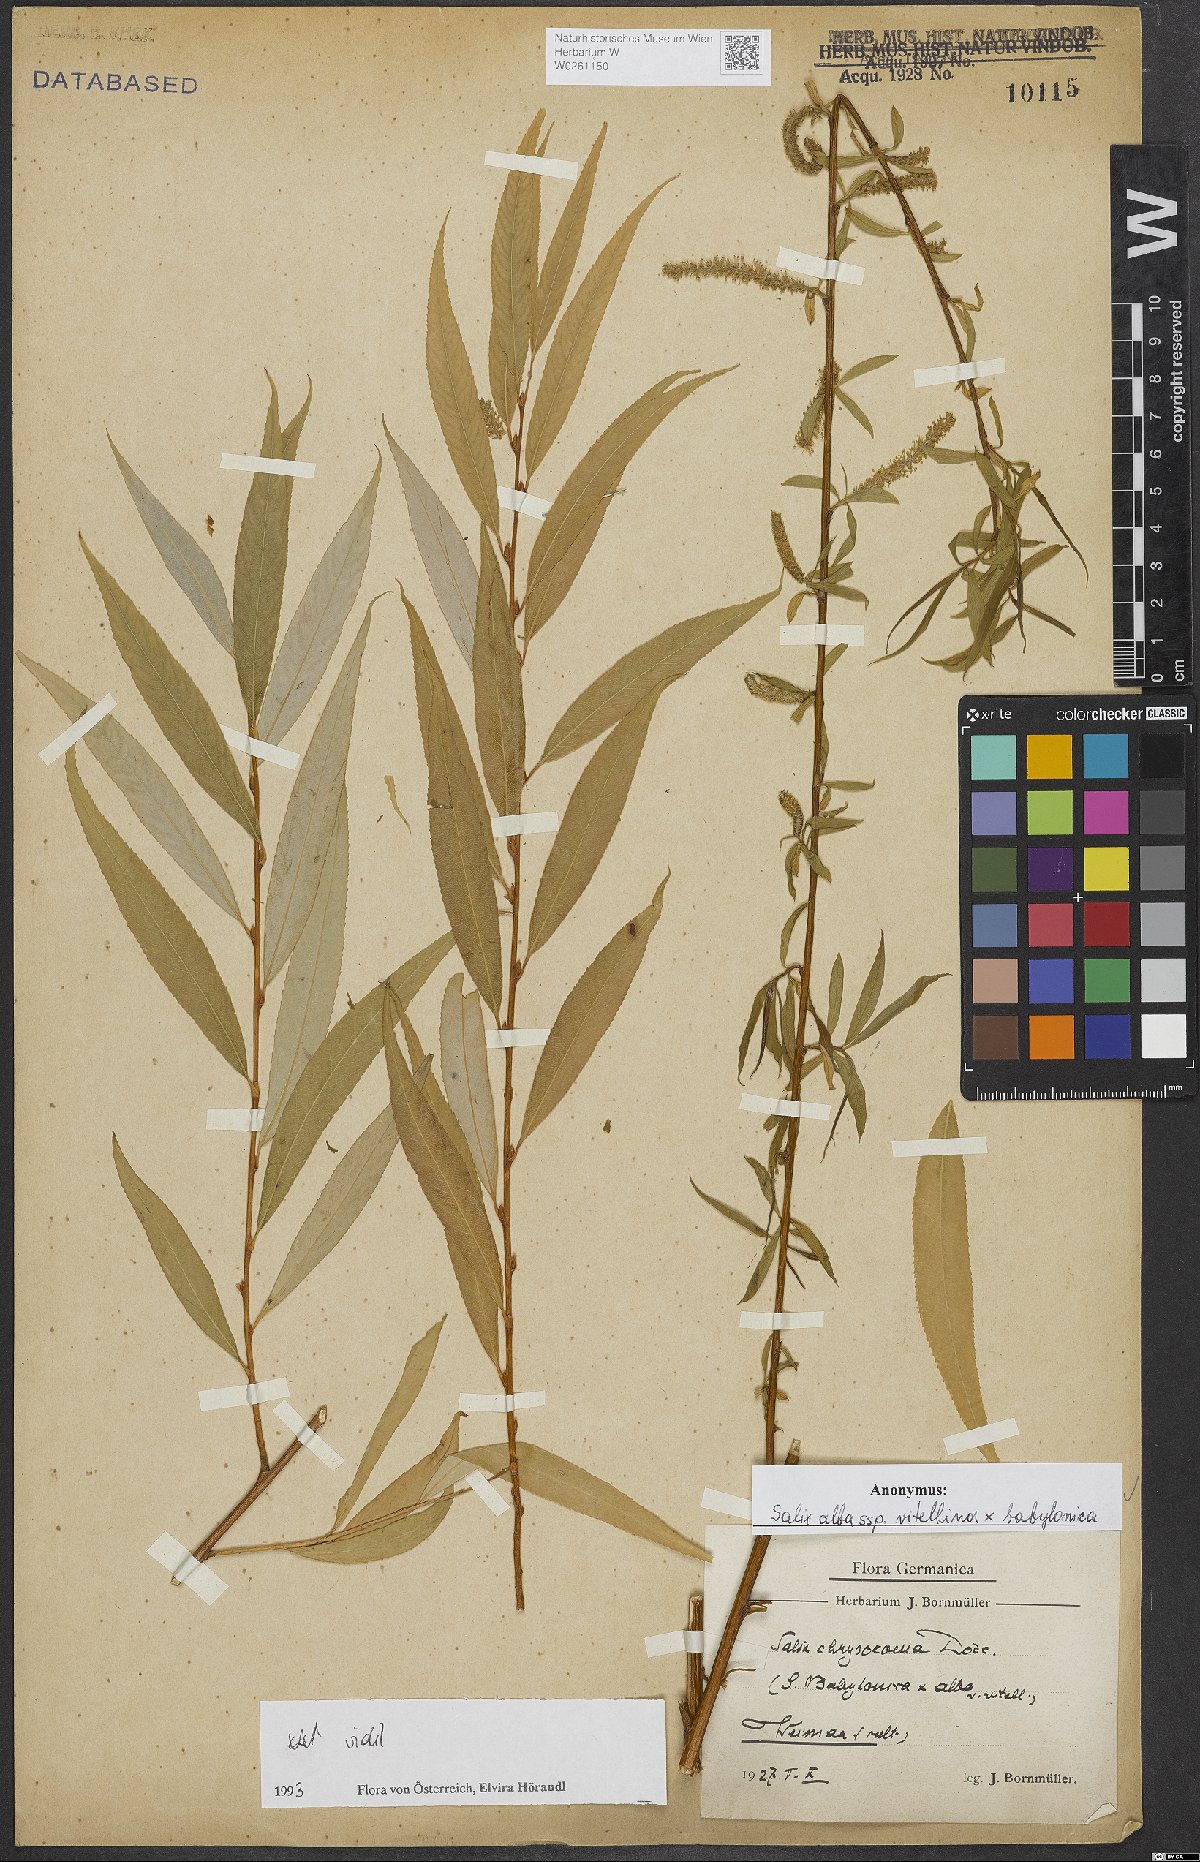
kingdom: Plantae
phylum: Tracheophyta
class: Magnoliopsida
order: Malpighiales
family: Salicaceae
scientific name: Salicaceae
